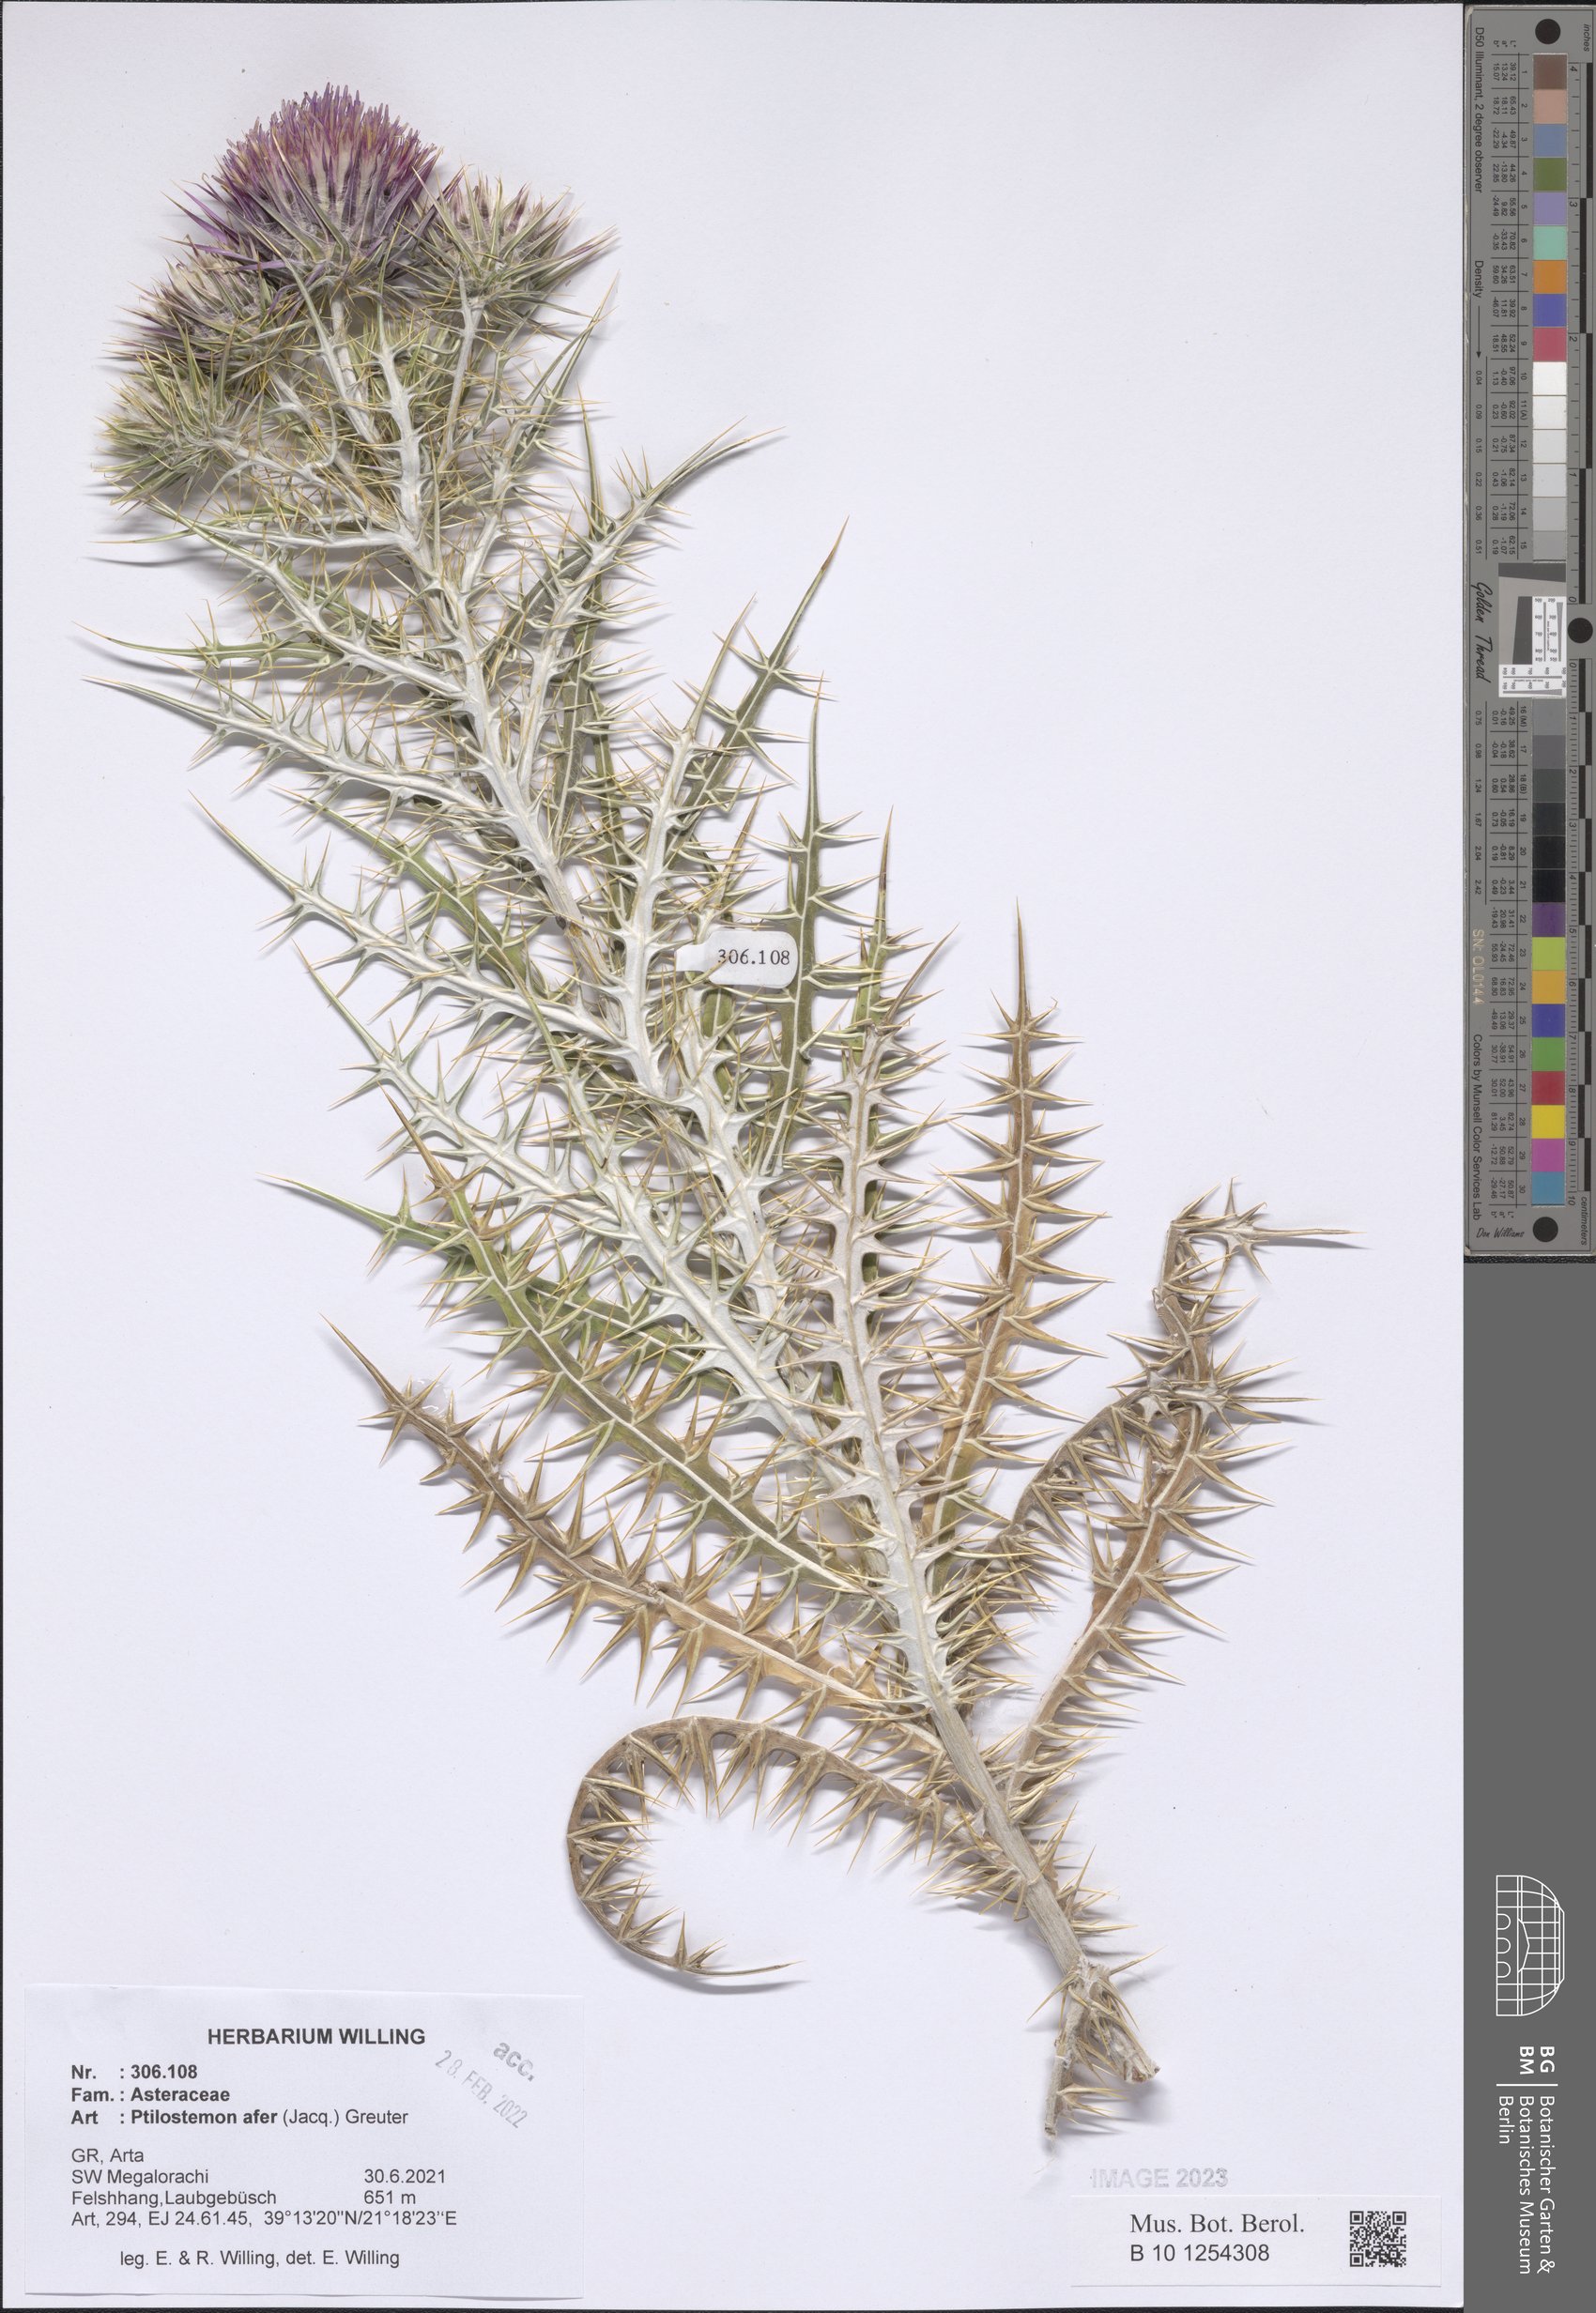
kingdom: Plantae
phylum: Tracheophyta
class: Magnoliopsida
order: Asterales
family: Asteraceae
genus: Ptilostemon
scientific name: Ptilostemon afer
